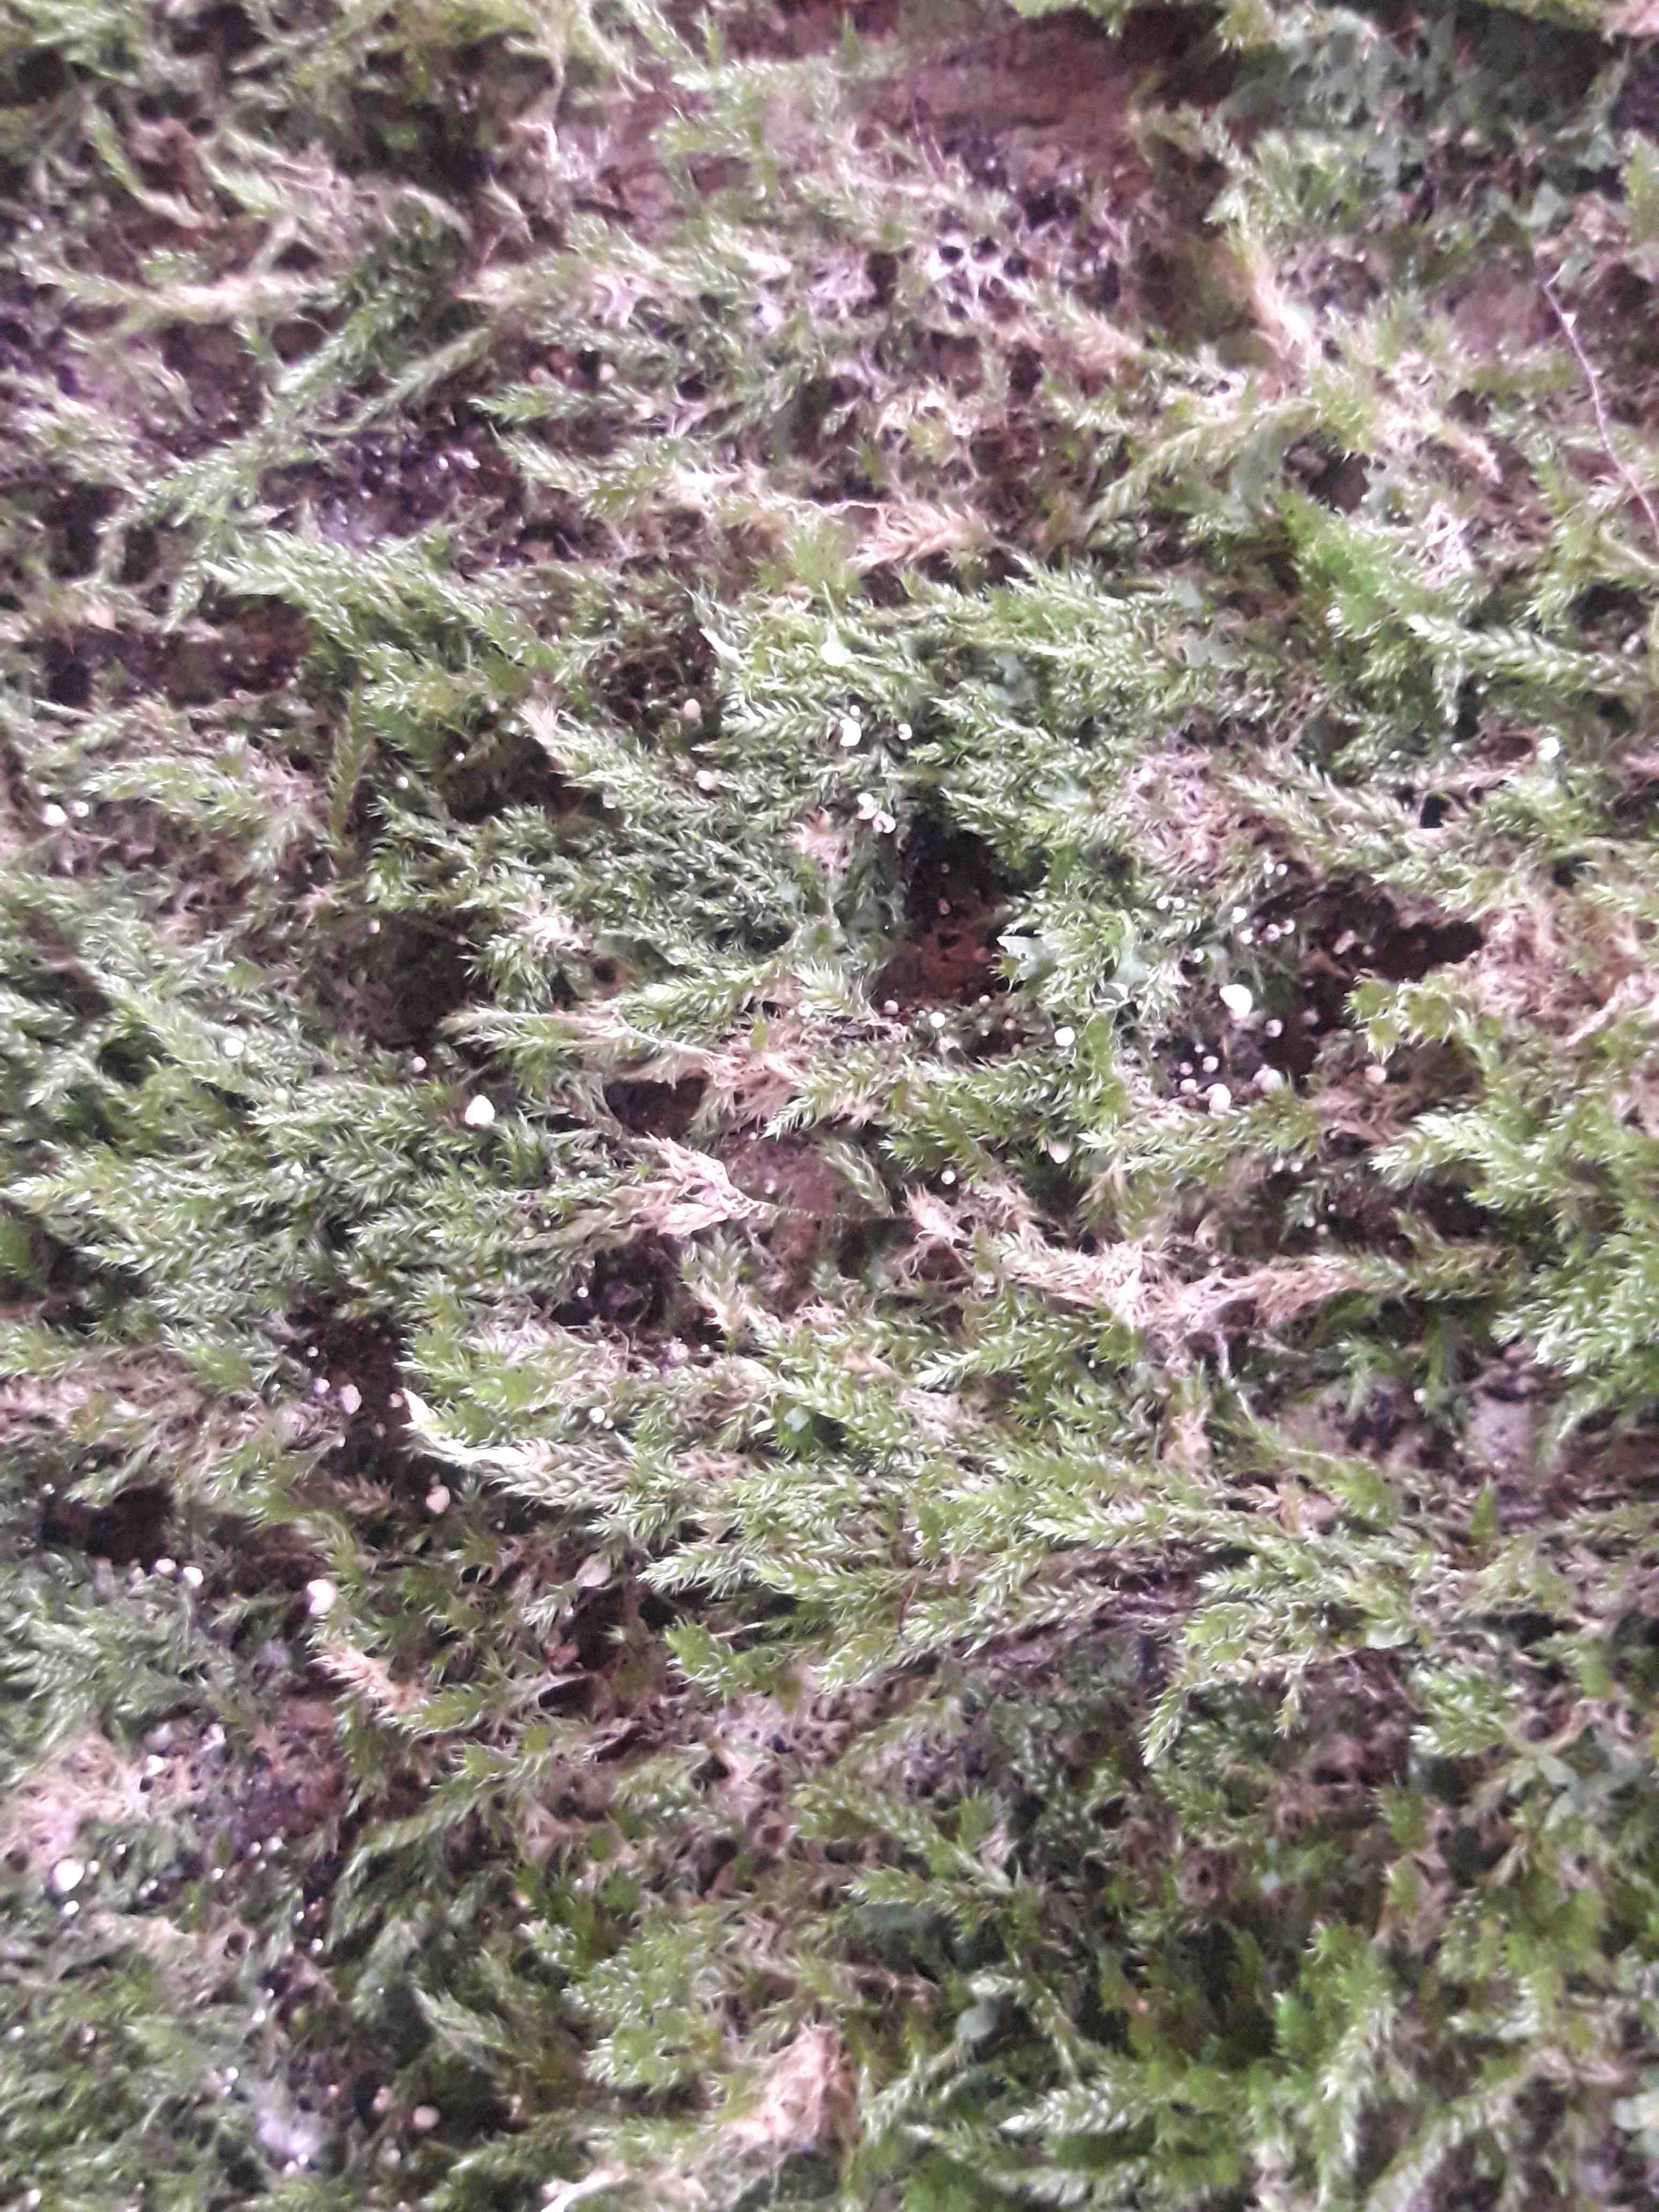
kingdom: Fungi
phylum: Basidiomycota
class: Agaricomycetes
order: Agaricales
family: Chromocyphellaceae
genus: Chromocyphella
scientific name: Chromocyphella muscicola
